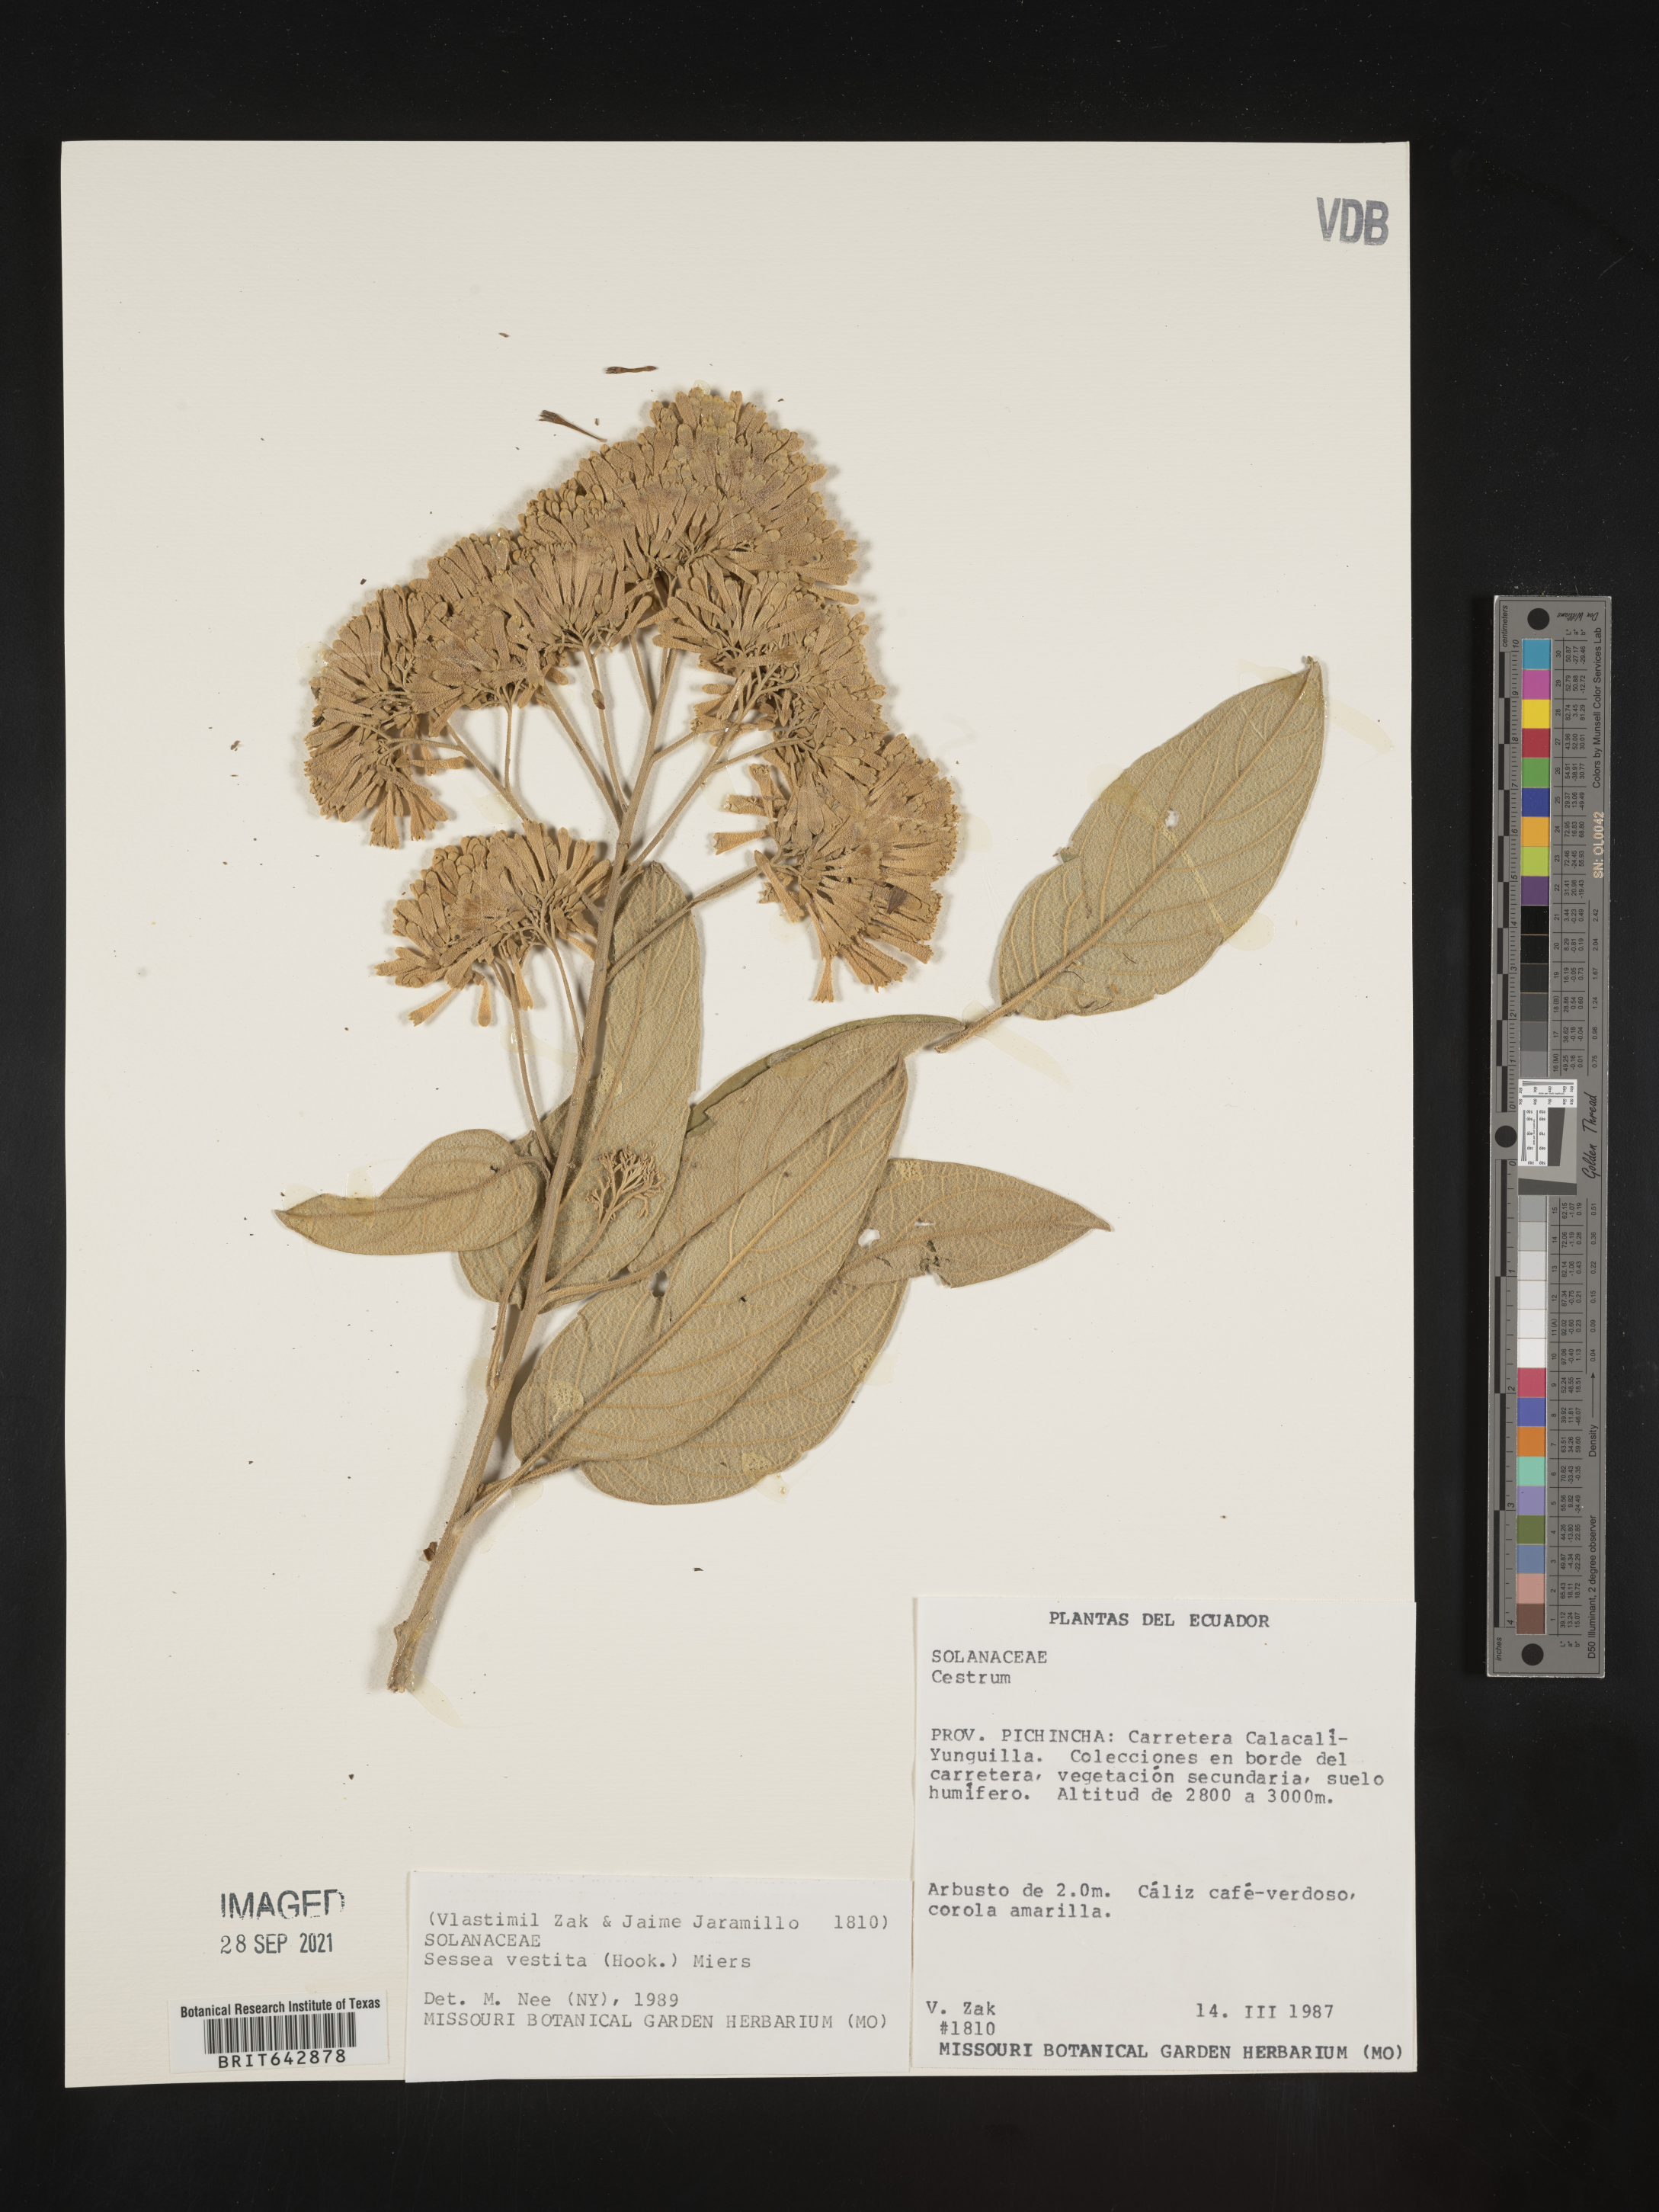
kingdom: Plantae
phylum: Tracheophyta
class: Magnoliopsida
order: Solanales
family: Solanaceae
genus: Cestrum
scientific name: Cestrum
